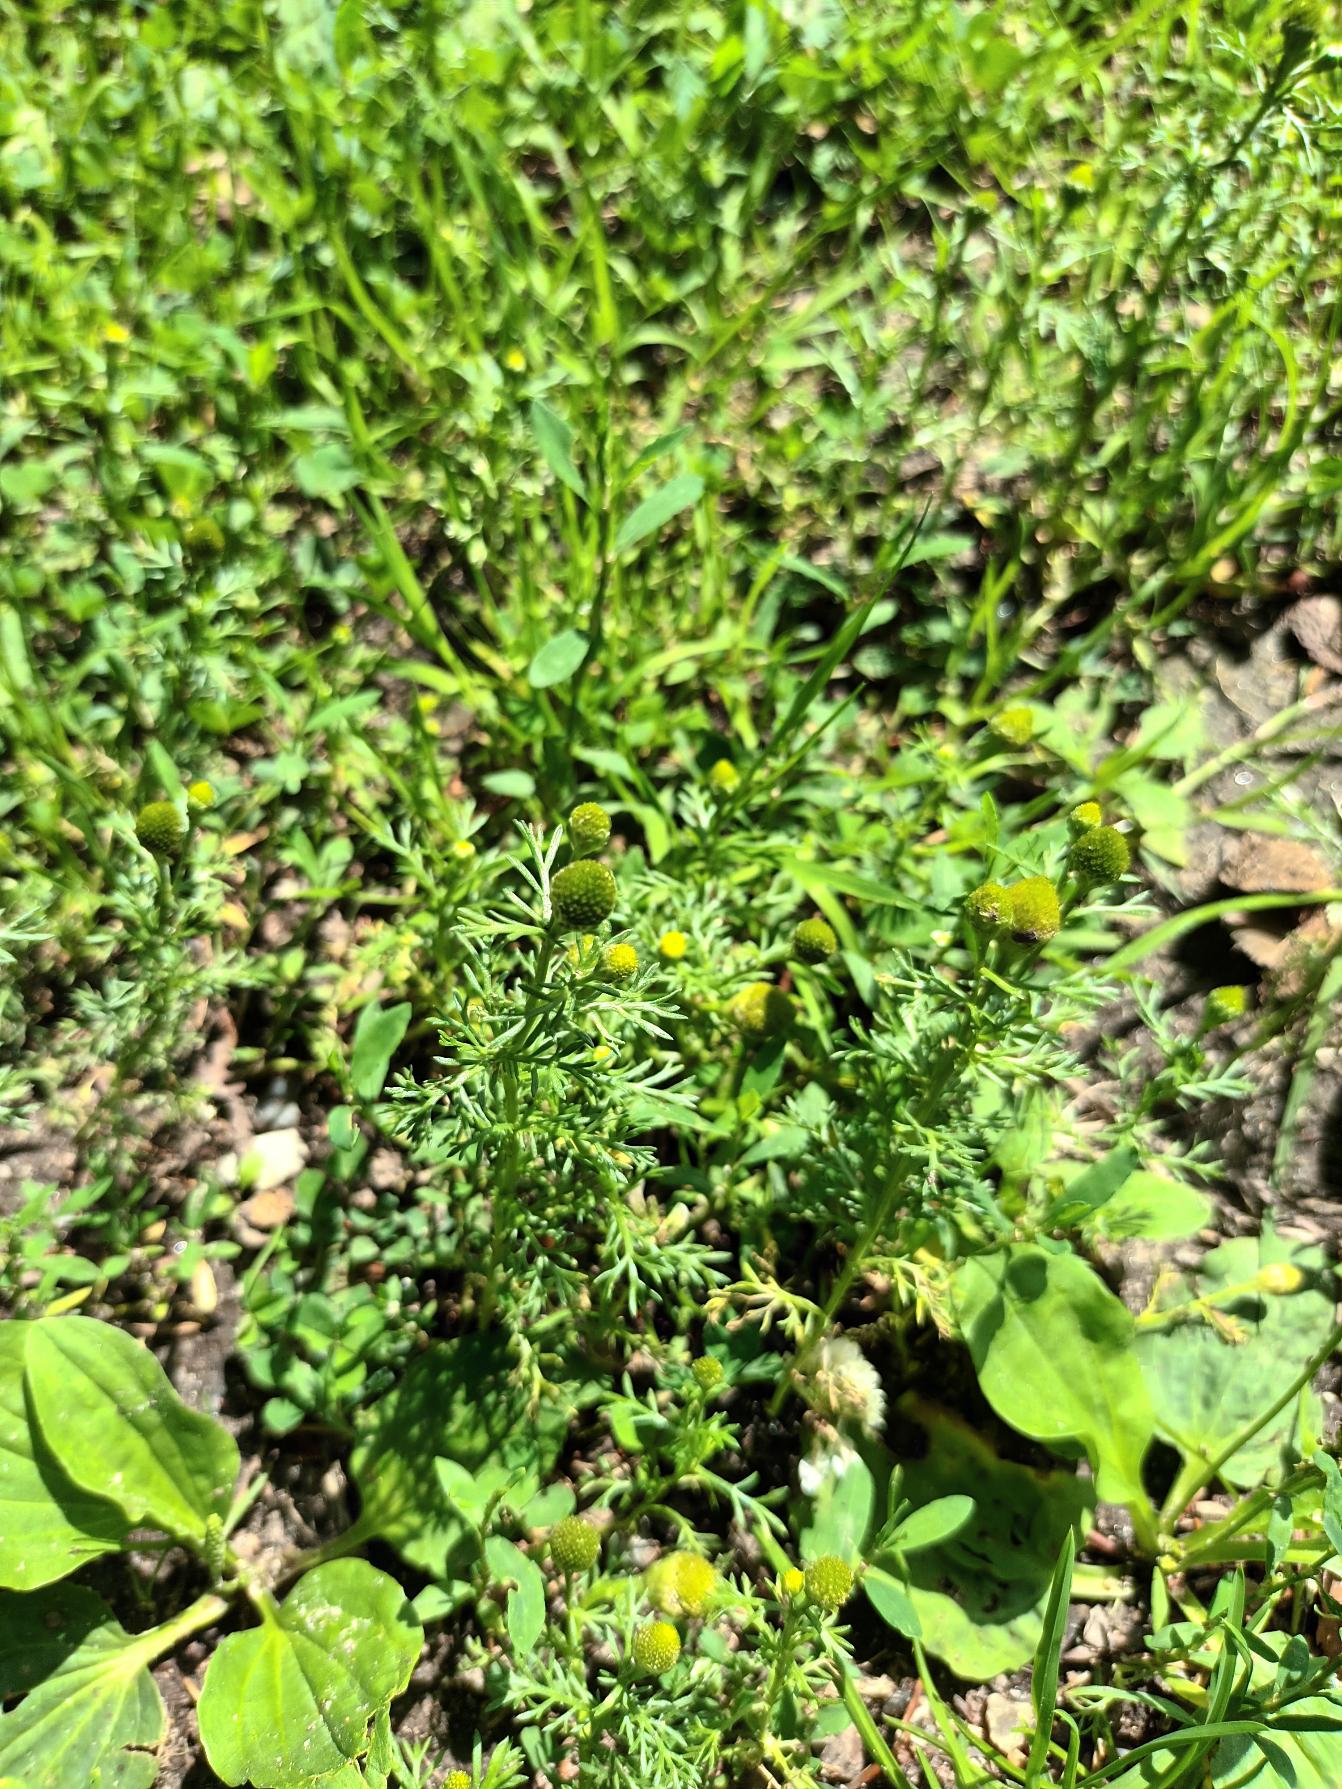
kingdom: Plantae
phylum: Tracheophyta
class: Magnoliopsida
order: Asterales
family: Asteraceae
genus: Matricaria
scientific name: Matricaria discoidea
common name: Skive-kamille
